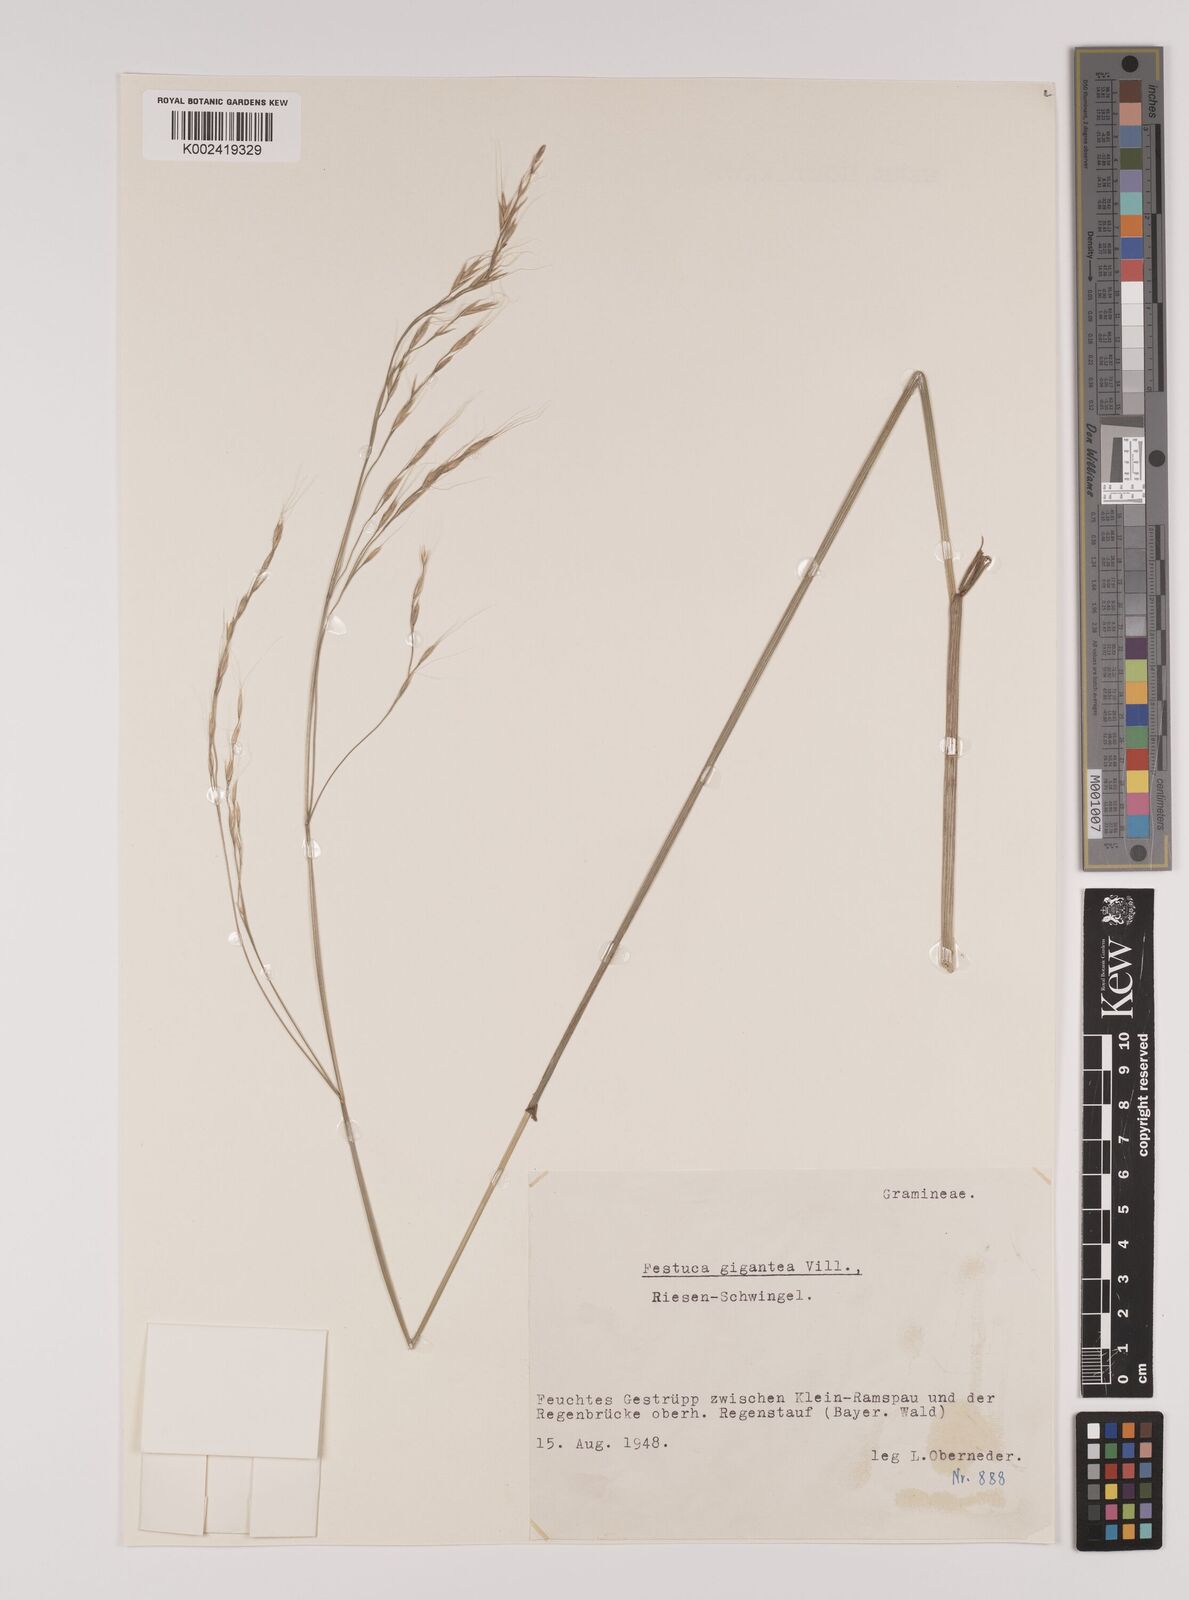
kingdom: Plantae
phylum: Tracheophyta
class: Liliopsida
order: Poales
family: Poaceae
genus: Lolium
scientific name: Lolium giganteum
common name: Giant fescue
